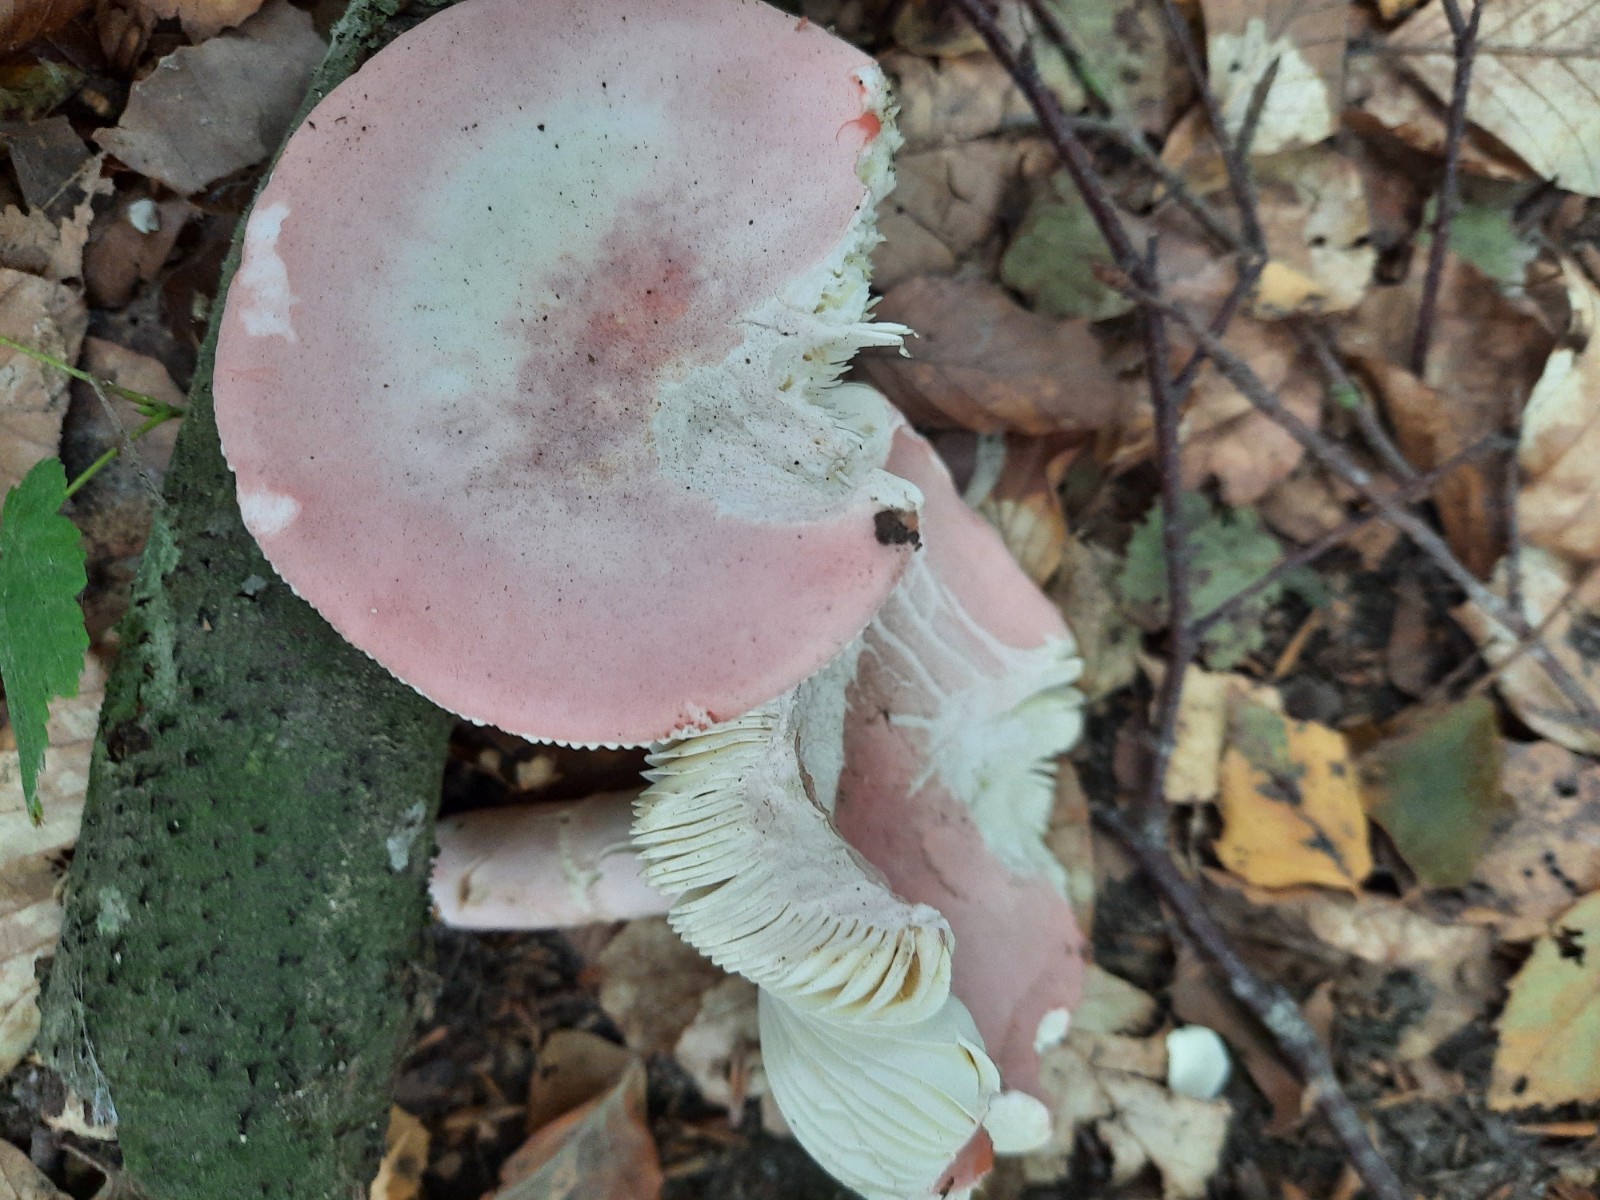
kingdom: Fungi
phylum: Basidiomycota
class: Agaricomycetes
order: Russulales
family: Russulaceae
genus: Russula
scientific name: Russula rosea
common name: fastkødet skørhat
